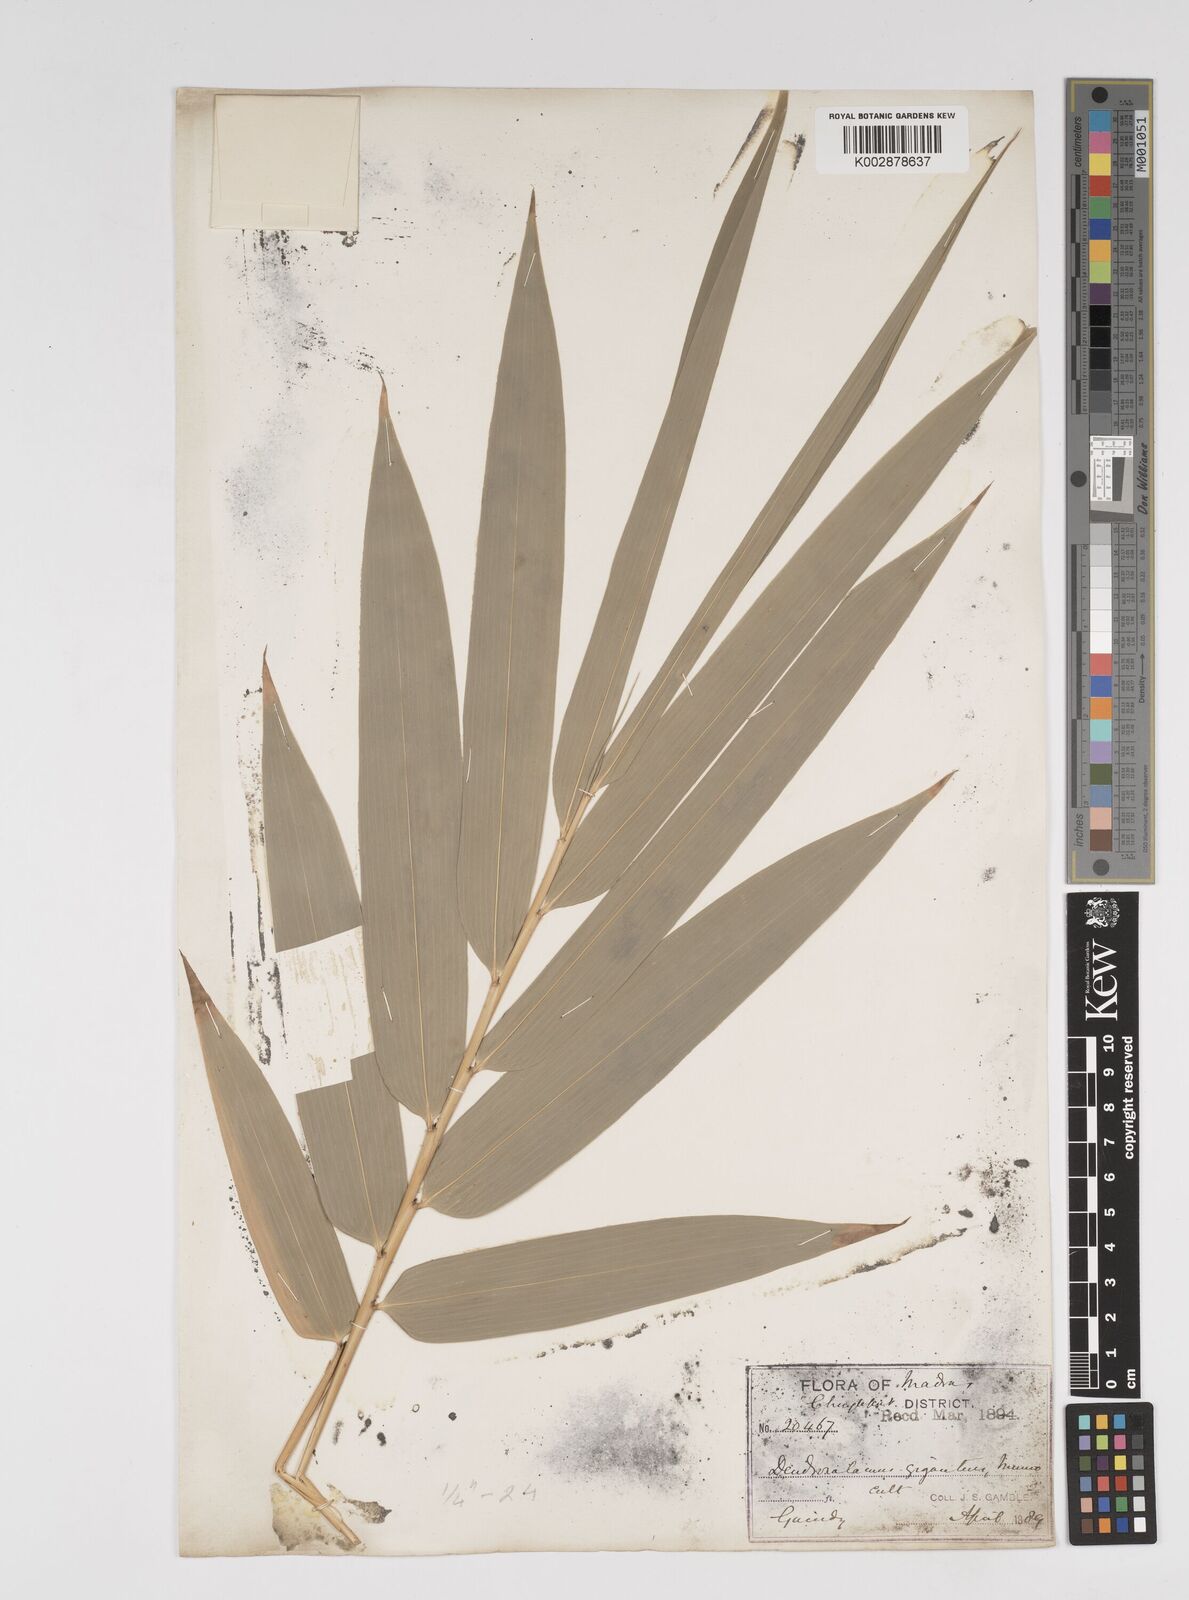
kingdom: Plantae
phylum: Tracheophyta
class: Liliopsida
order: Poales
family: Poaceae
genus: Dendrocalamus
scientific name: Dendrocalamus giganteus
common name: Giant bamboo
